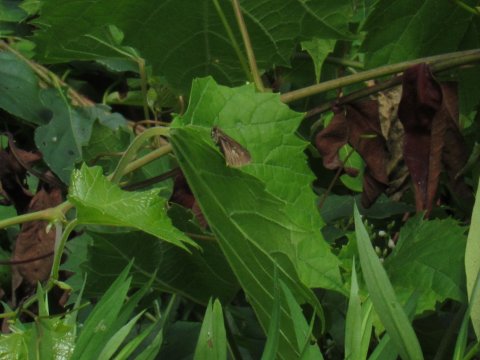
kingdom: Animalia
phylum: Arthropoda
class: Insecta
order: Lepidoptera
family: Hesperiidae
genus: Polites
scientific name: Polites egeremet
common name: Northern Broken-Dash
